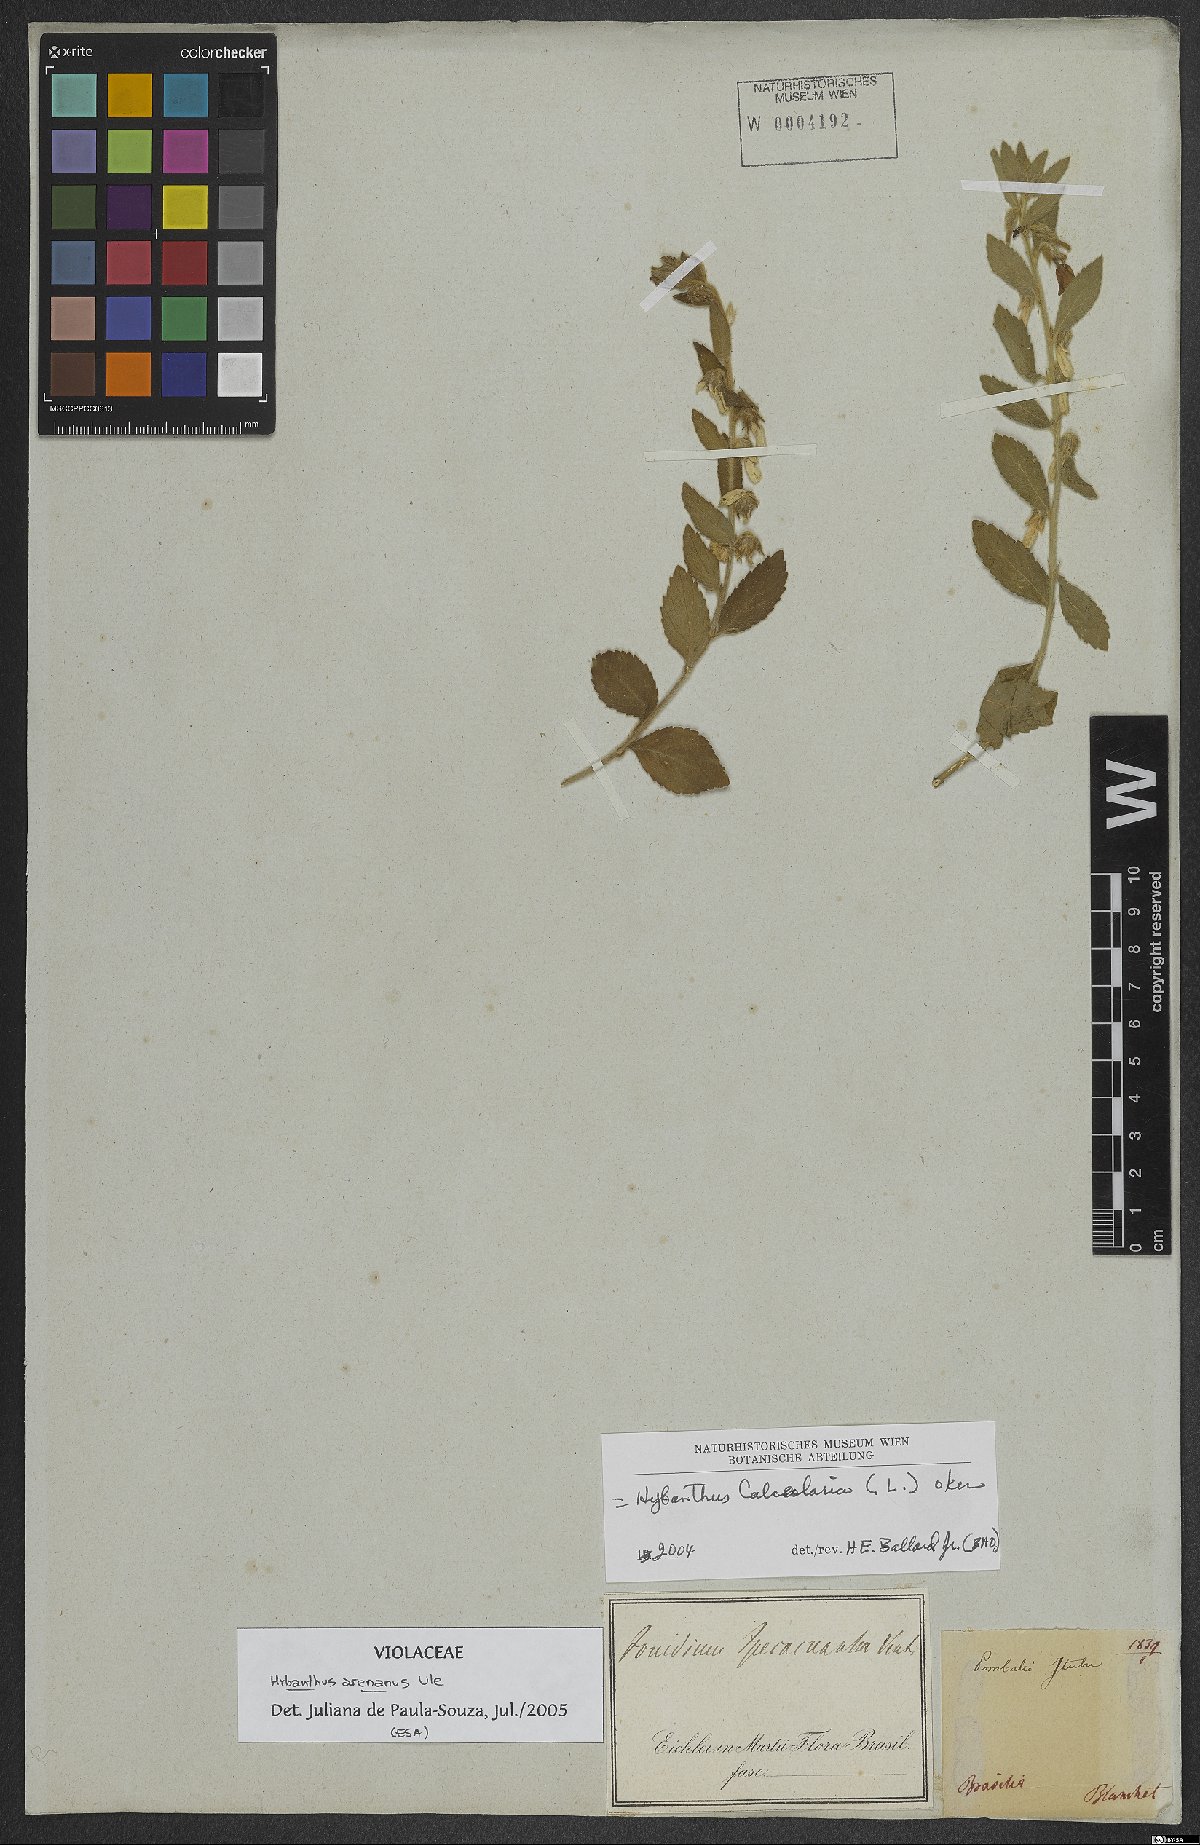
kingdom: Plantae
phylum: Tracheophyta
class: Magnoliopsida
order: Malpighiales
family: Violaceae
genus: Pombalia
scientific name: Pombalia arenaria
